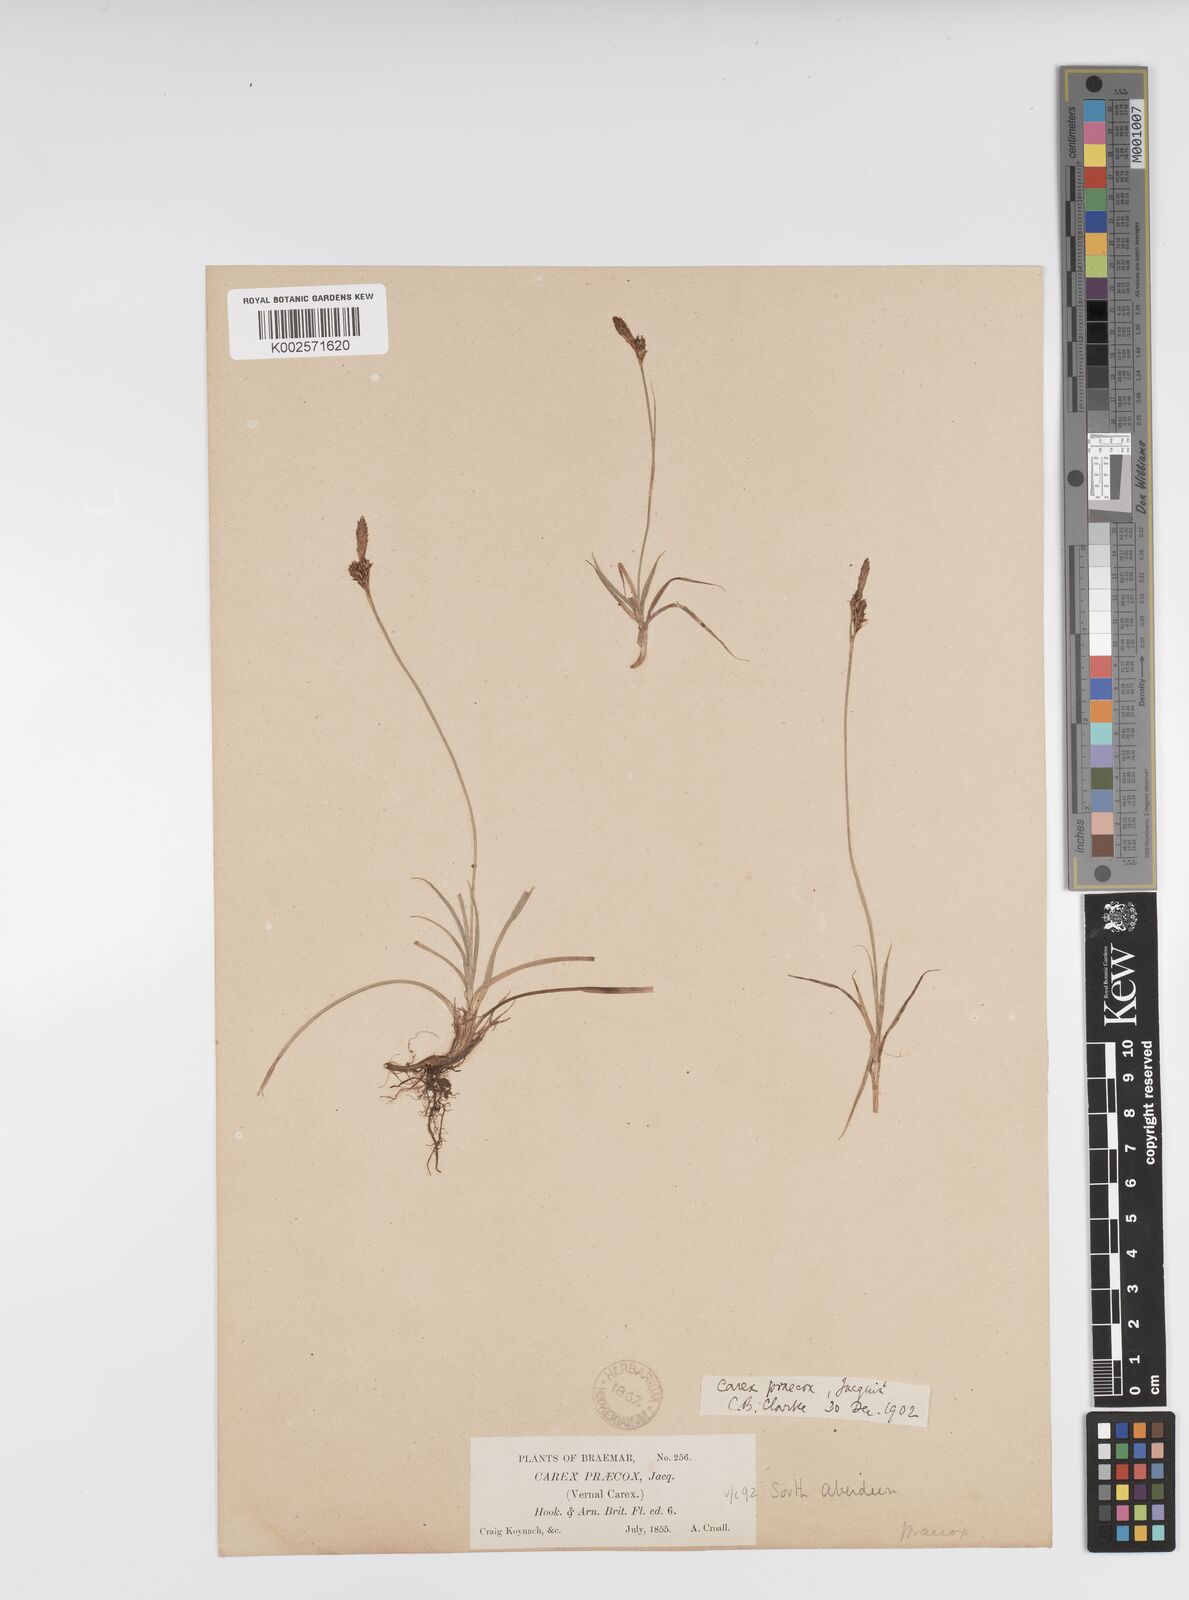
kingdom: Plantae
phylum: Tracheophyta
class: Liliopsida
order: Poales
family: Cyperaceae
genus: Carex
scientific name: Carex caryophyllea
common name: Spring sedge
